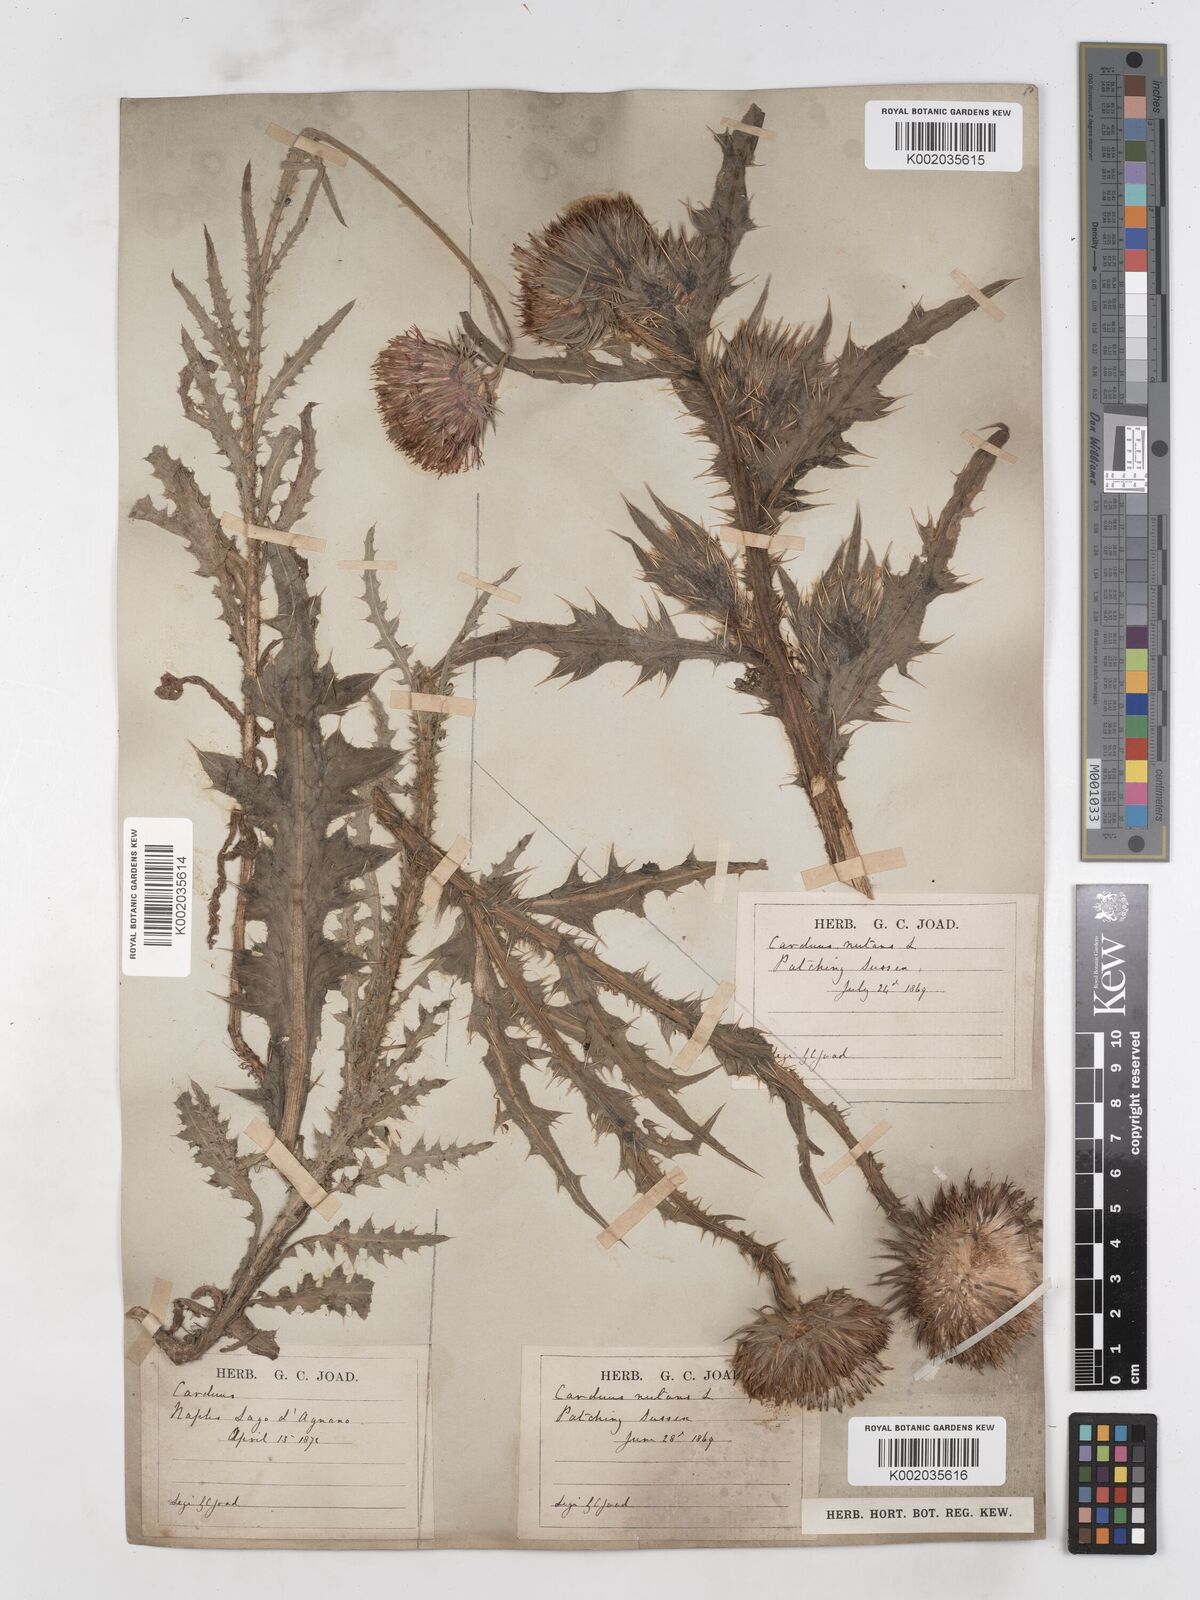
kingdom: Plantae
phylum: Tracheophyta
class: Magnoliopsida
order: Asterales
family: Asteraceae
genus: Carduus
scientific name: Carduus nutans
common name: Musk thistle
